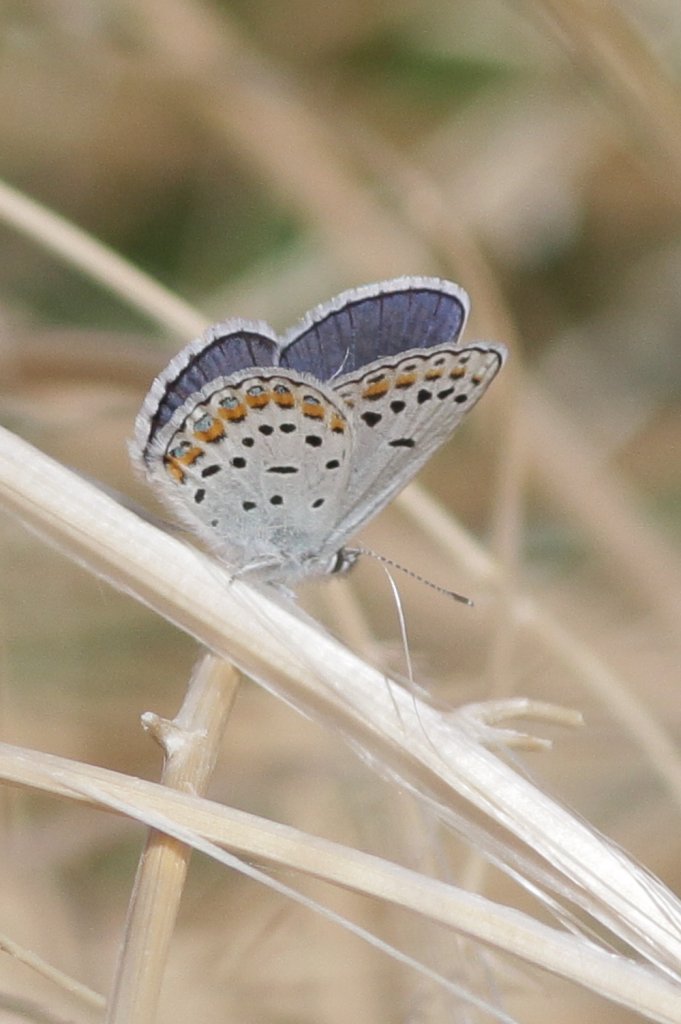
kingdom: Animalia
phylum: Arthropoda
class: Insecta
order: Lepidoptera
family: Lycaenidae
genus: Lycaeides
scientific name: Lycaeides melissa
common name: Melissa Blue
